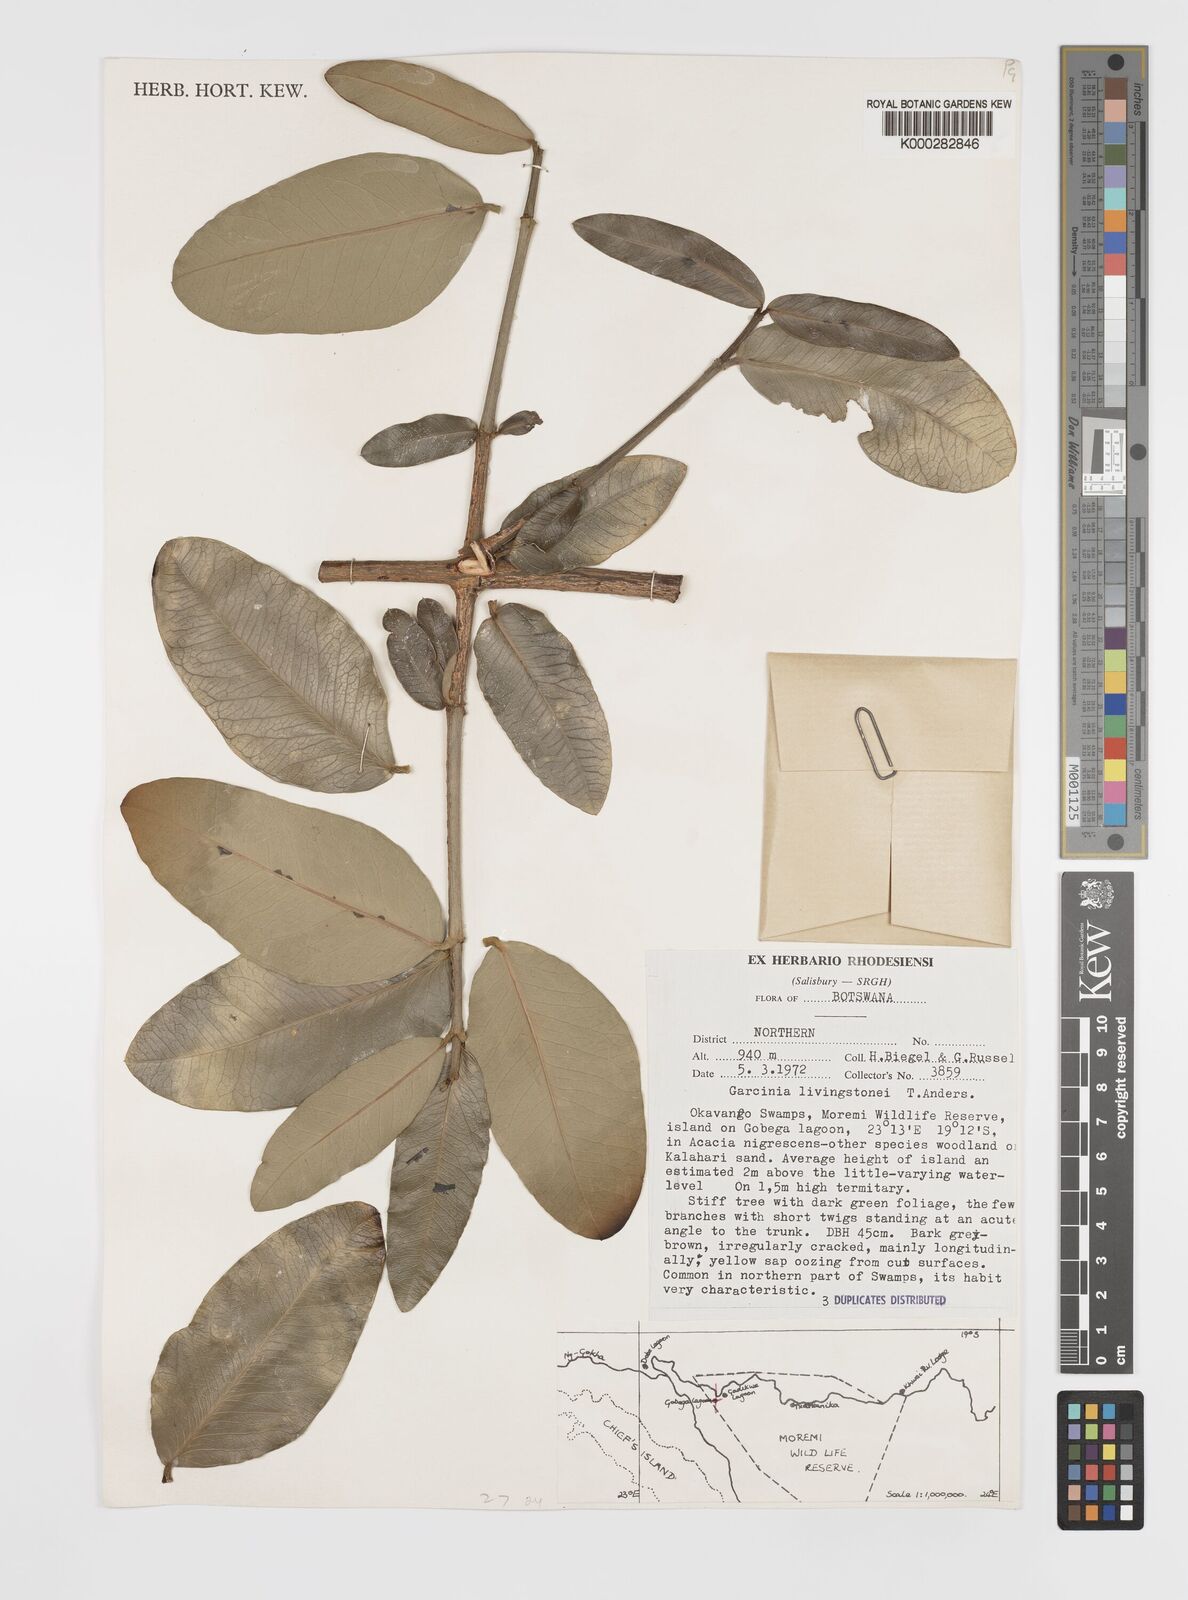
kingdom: Plantae
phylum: Tracheophyta
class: Magnoliopsida
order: Malpighiales
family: Clusiaceae
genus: Garcinia
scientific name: Garcinia livingstonei
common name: African mangosteen
